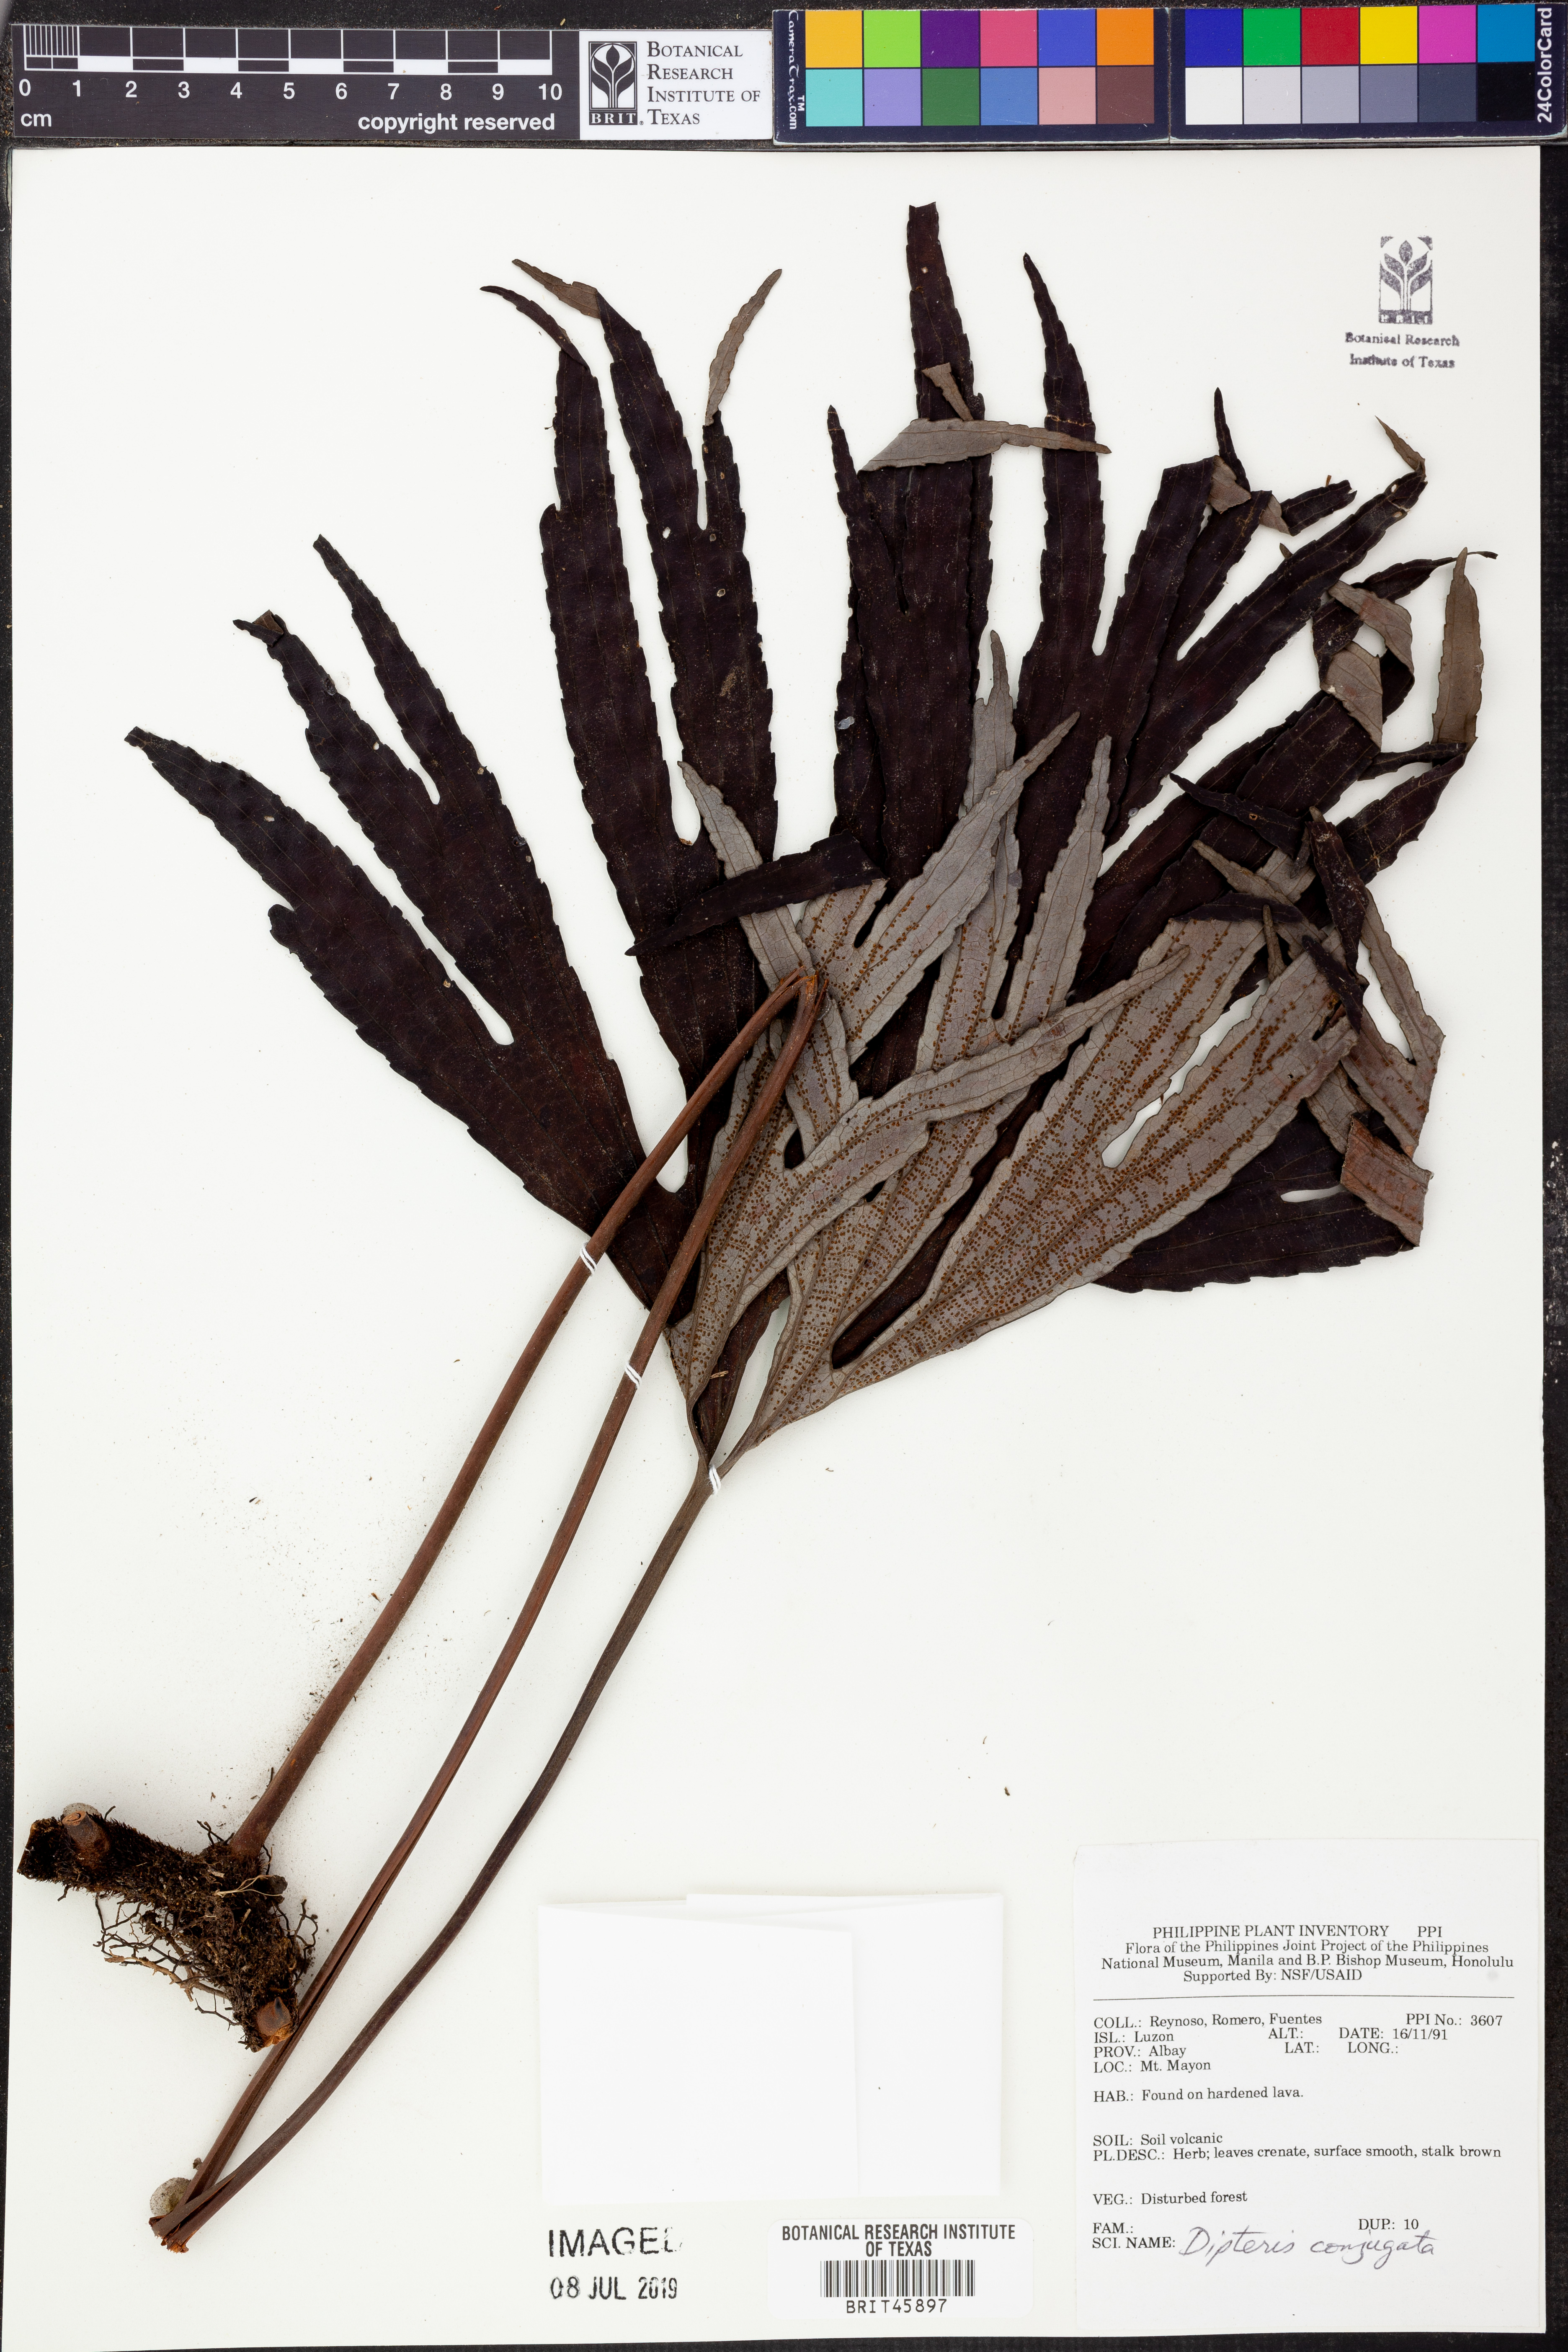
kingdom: Plantae
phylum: Tracheophyta
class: Polypodiopsida
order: Gleicheniales
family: Dipteridaceae
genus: Dipteris
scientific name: Dipteris conjugata
